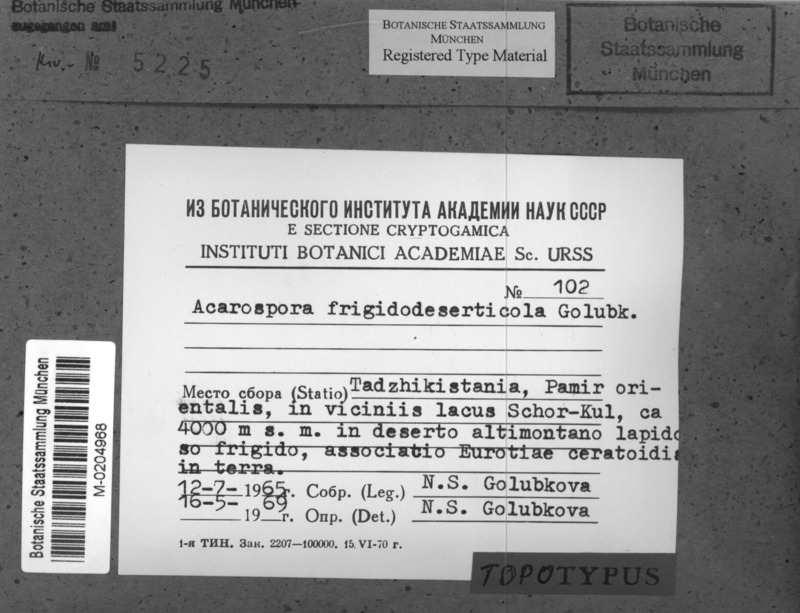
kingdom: Fungi
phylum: Ascomycota
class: Lecanoromycetes
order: Acarosporales
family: Acarosporaceae
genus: Acarospora
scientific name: Acarospora
